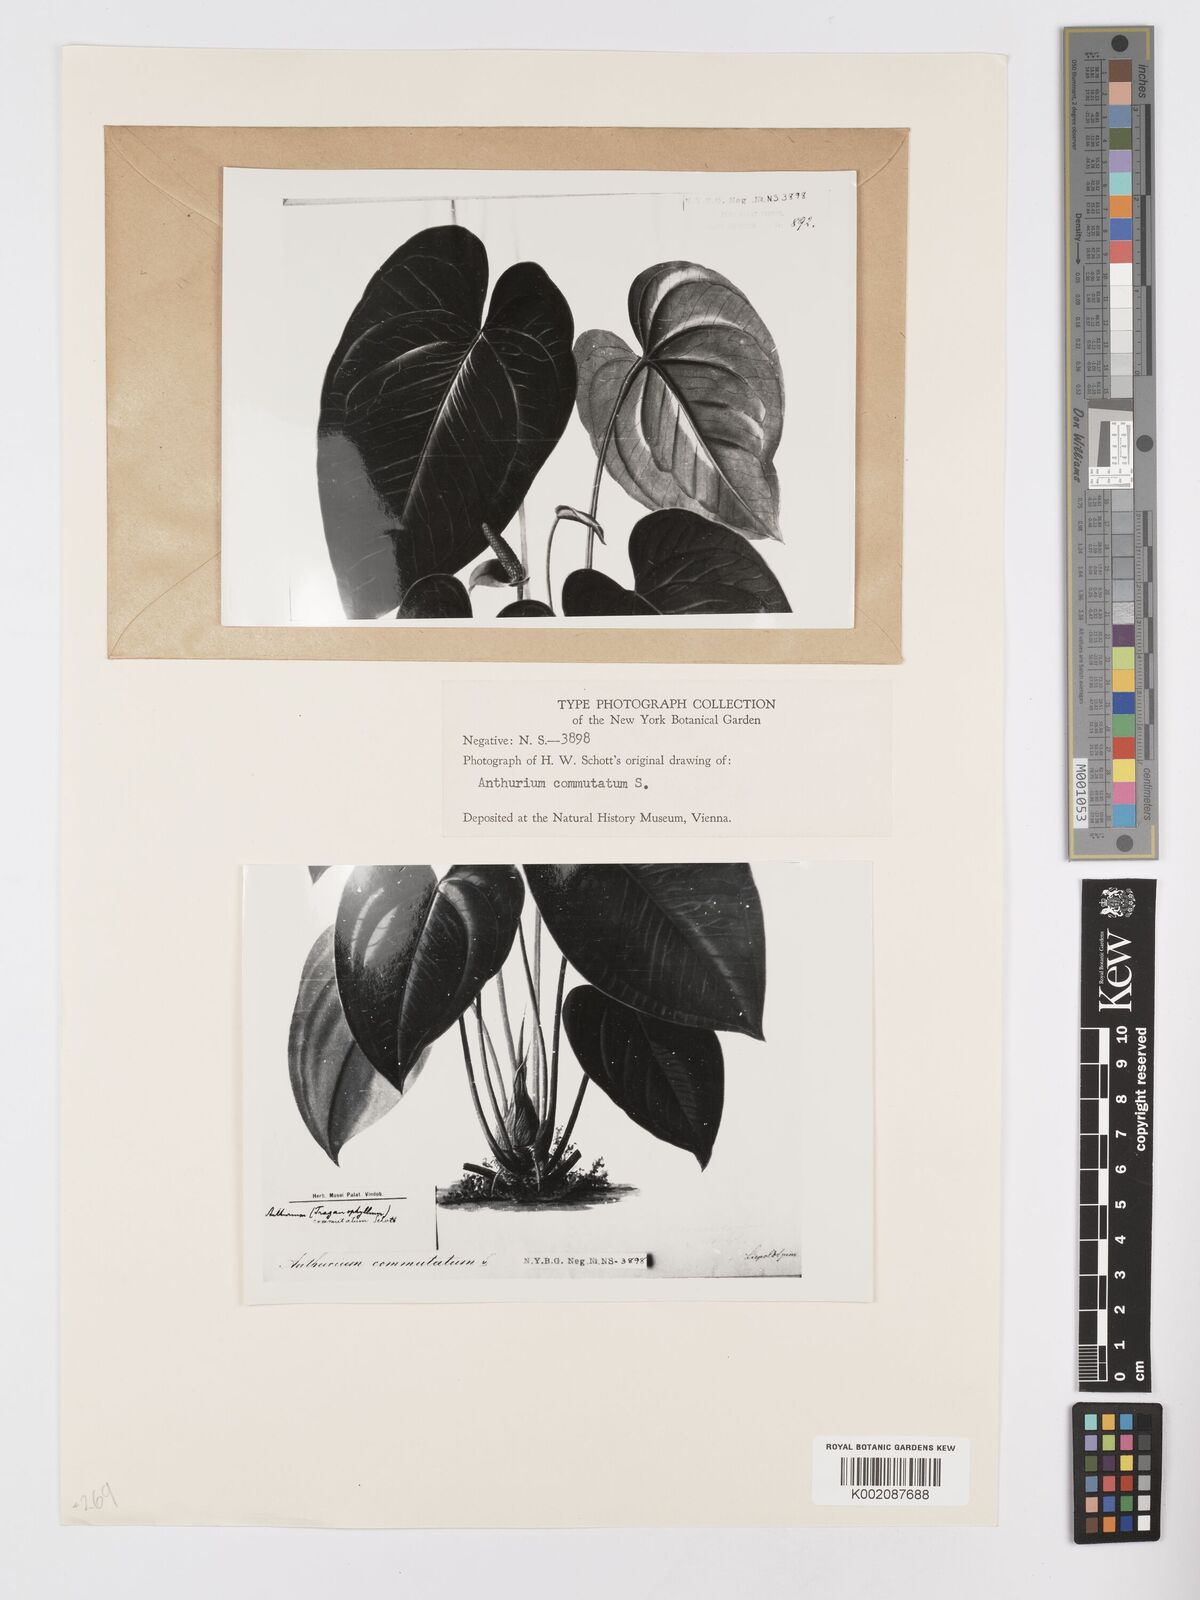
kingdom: Plantae
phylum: Tracheophyta
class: Liliopsida
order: Alismatales
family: Araceae
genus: Anthurium
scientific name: Anthurium cordatum
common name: Monkey tail
